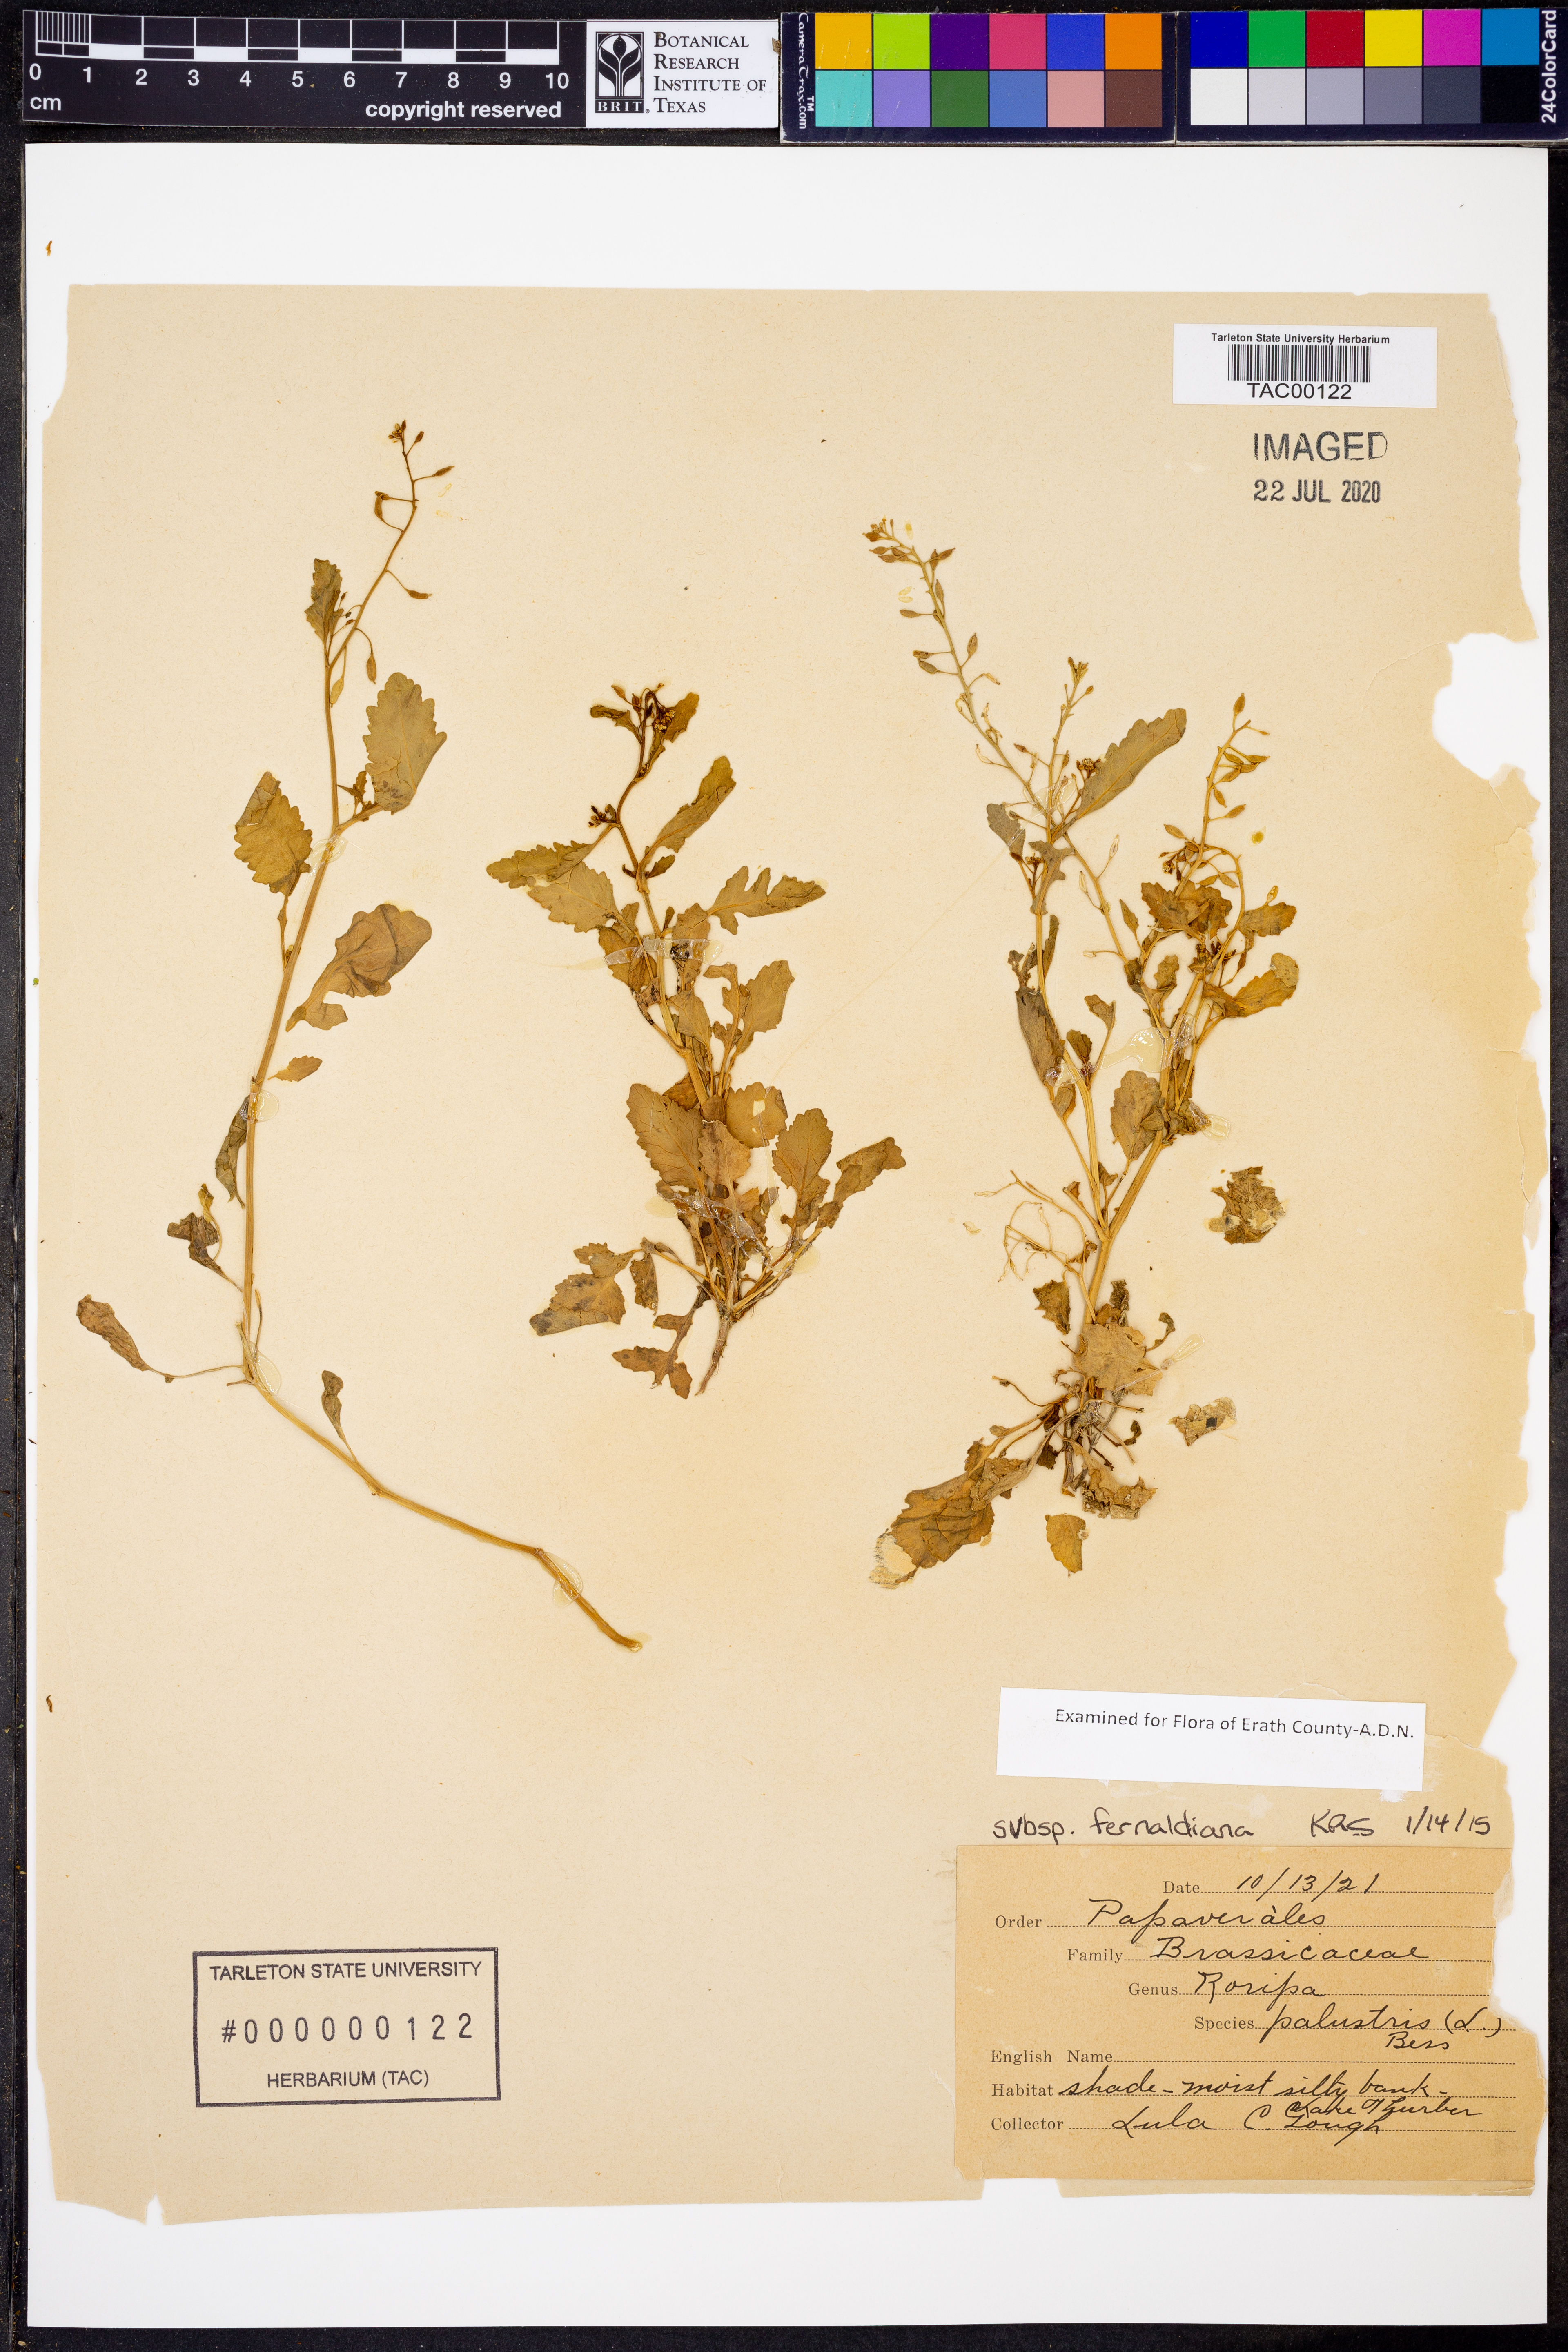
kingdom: Plantae
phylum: Tracheophyta
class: Magnoliopsida
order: Brassicales
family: Brassicaceae
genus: Rorippa
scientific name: Rorippa palustris
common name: Marsh yellow-cress
